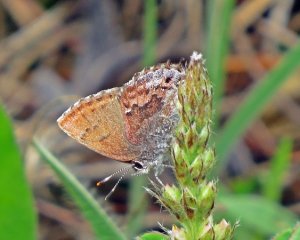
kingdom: Animalia
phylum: Arthropoda
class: Insecta
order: Lepidoptera
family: Lycaenidae
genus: Thecla
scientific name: Thecla irus
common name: Frosted Elfin
